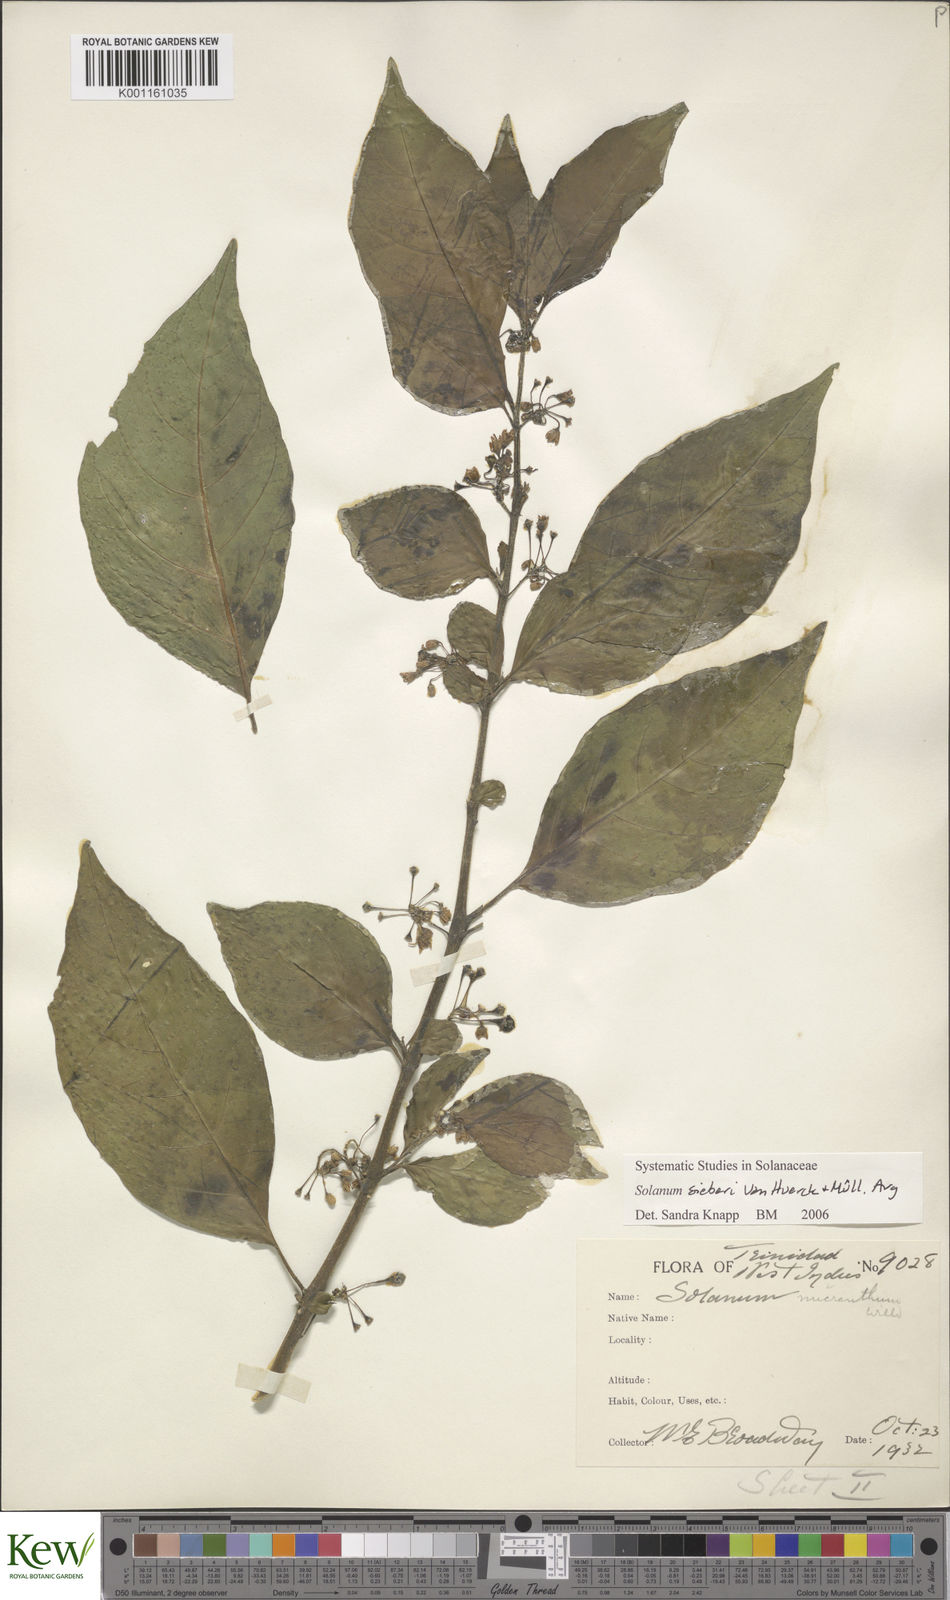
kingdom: Plantae
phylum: Tracheophyta
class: Magnoliopsida
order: Solanales
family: Solanaceae
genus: Solanum
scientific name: Solanum nudum
